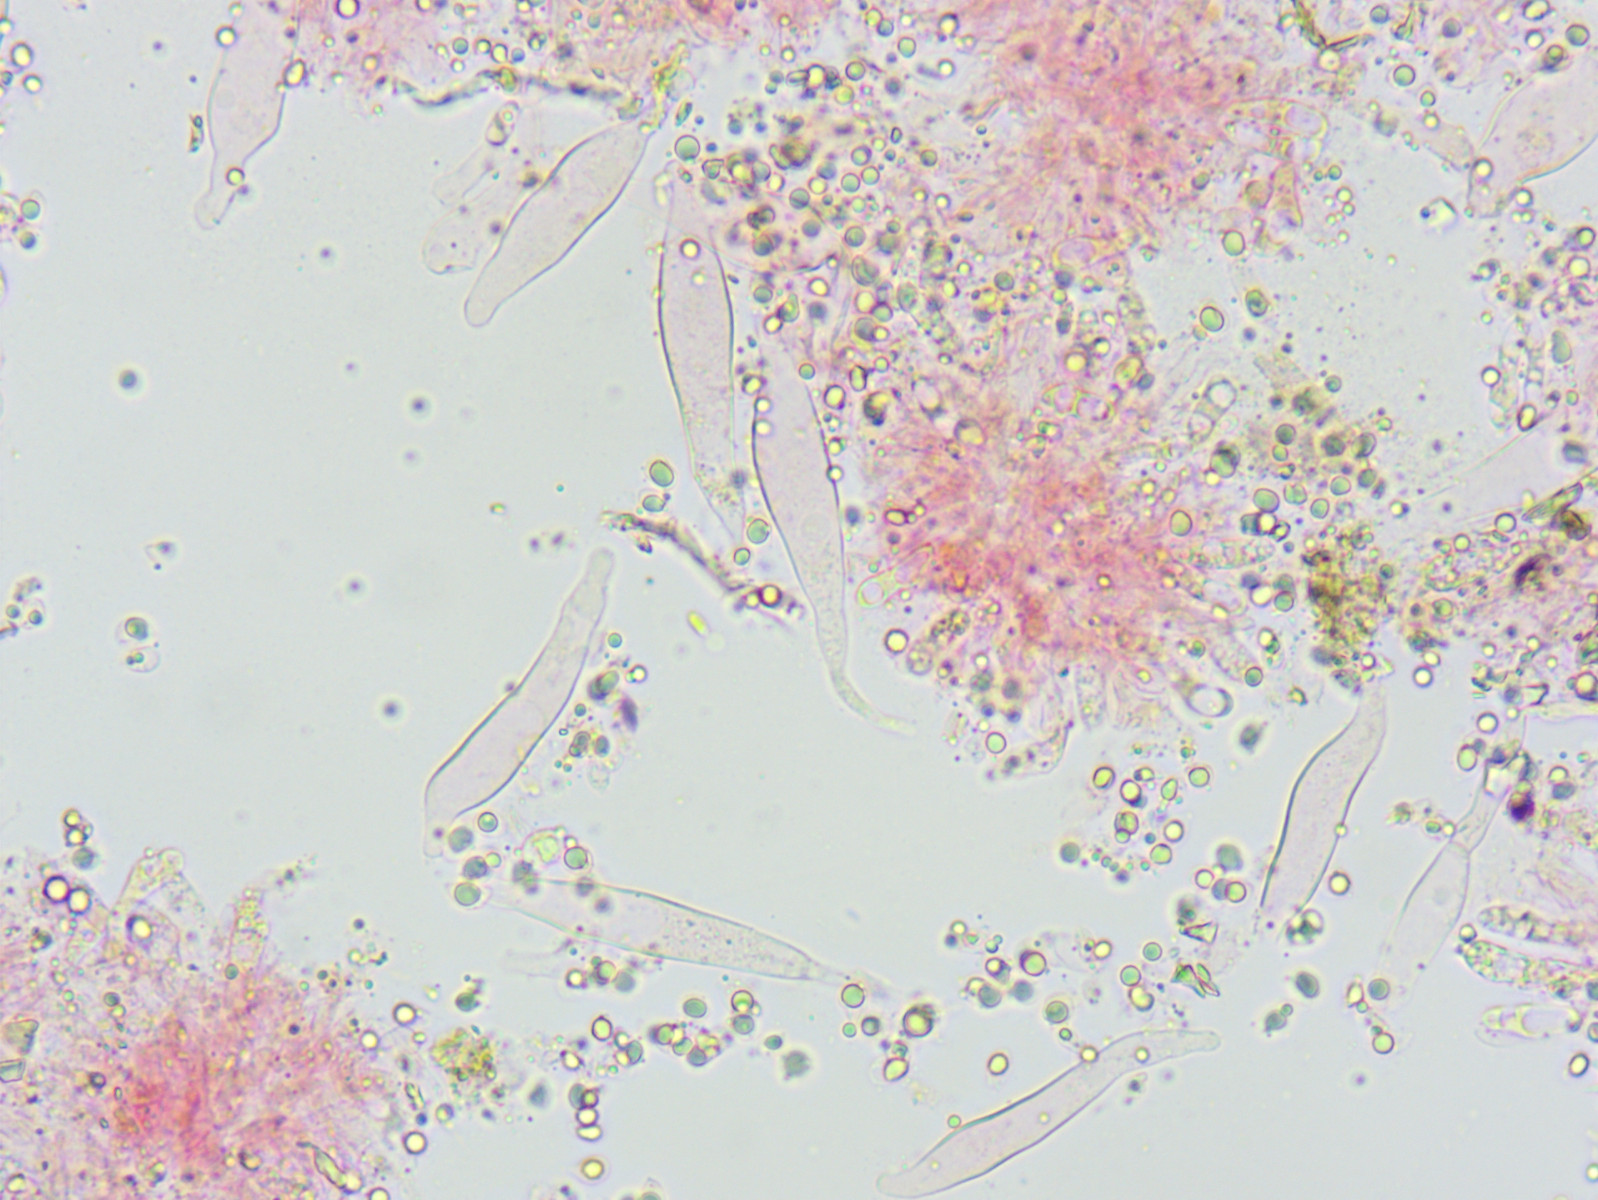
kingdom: Fungi
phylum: Basidiomycota
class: Agaricomycetes
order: Agaricales
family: Porotheleaceae
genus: Phloeomana
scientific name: Phloeomana minutula
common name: bleg huesvamp
